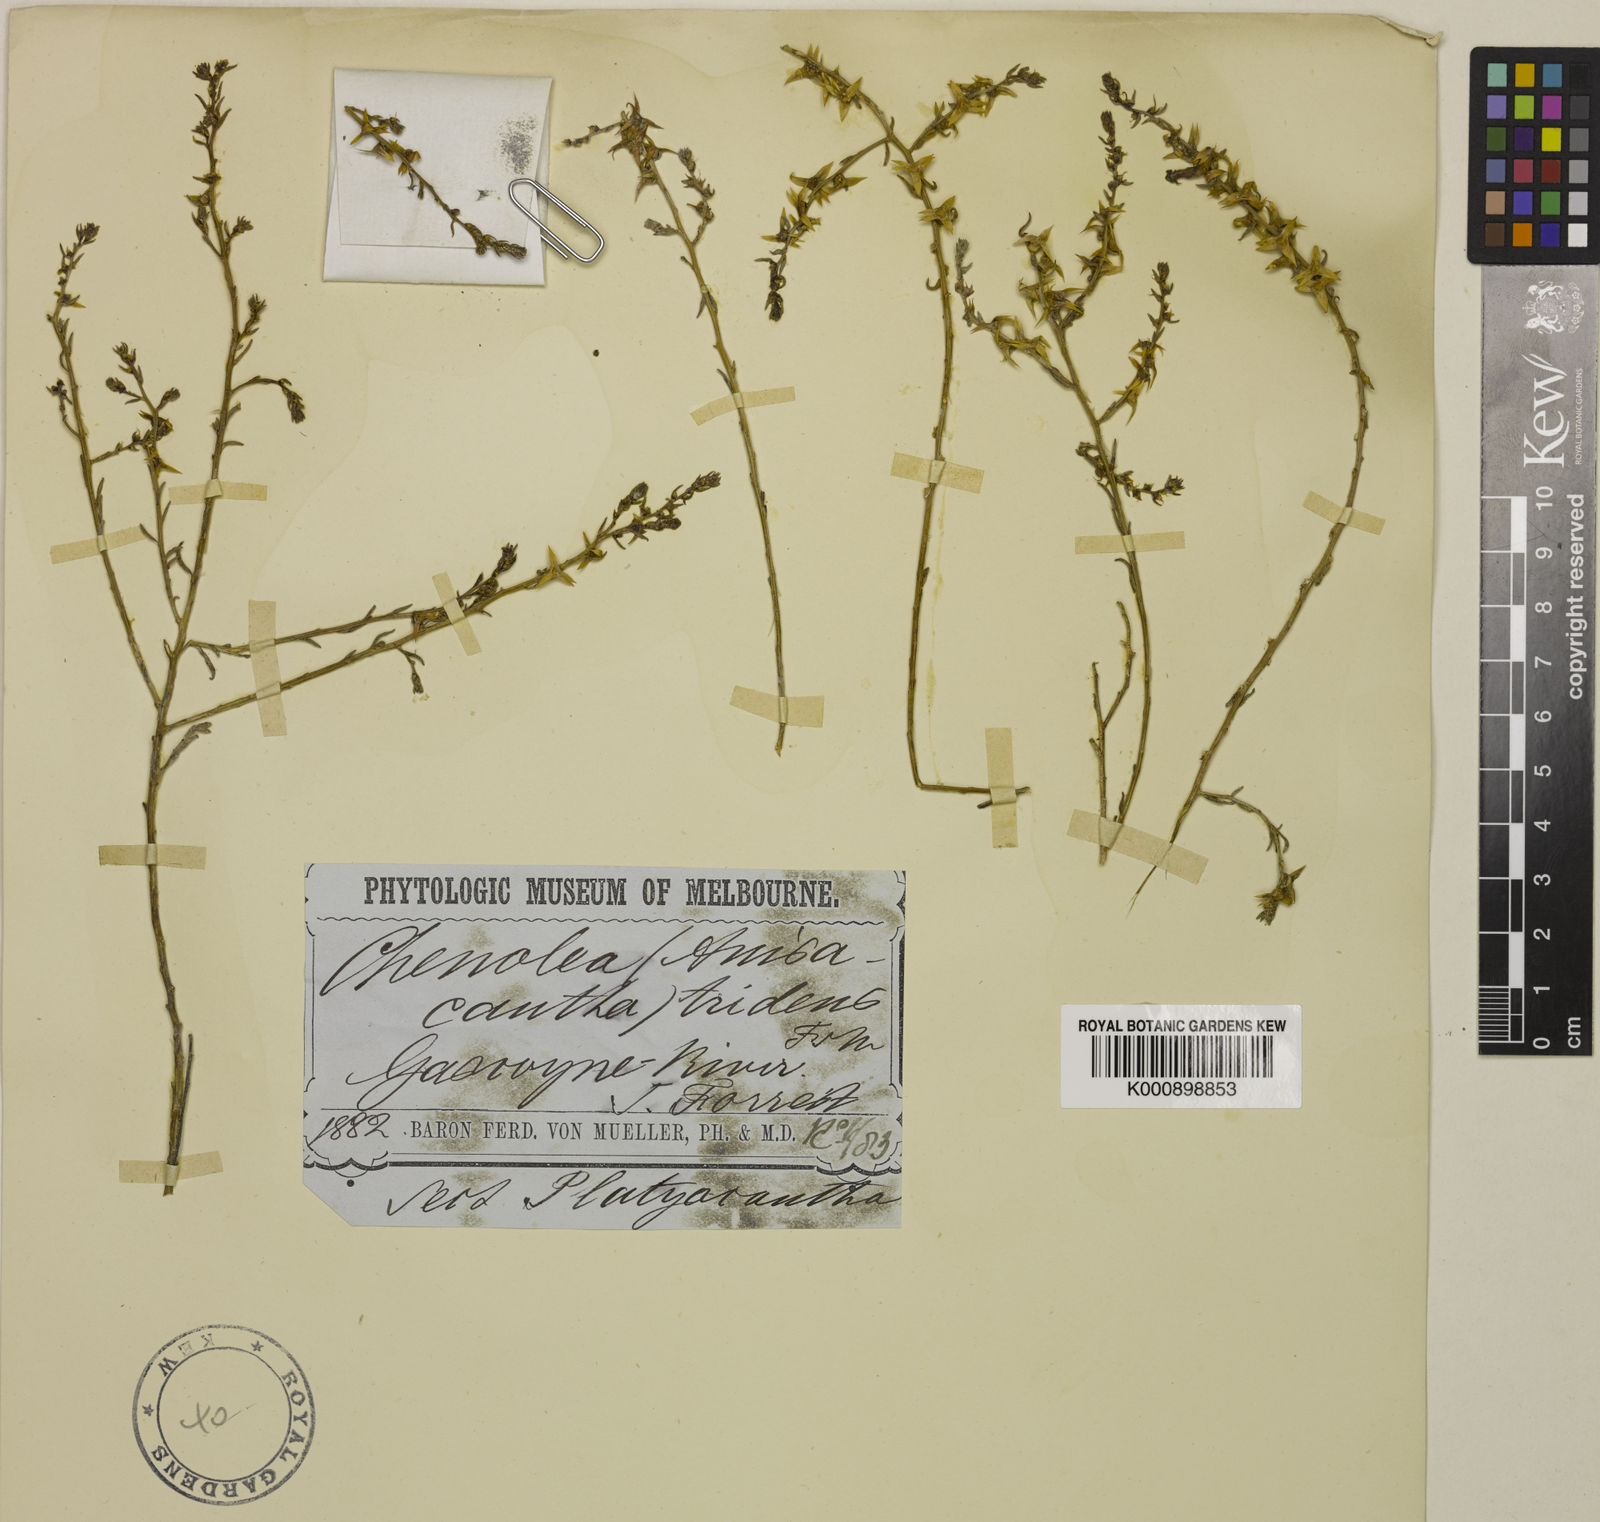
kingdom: Plantae
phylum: Tracheophyta
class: Magnoliopsida
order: Caryophyllales
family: Amaranthaceae
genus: Sclerolaena
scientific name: Sclerolaena tridens
